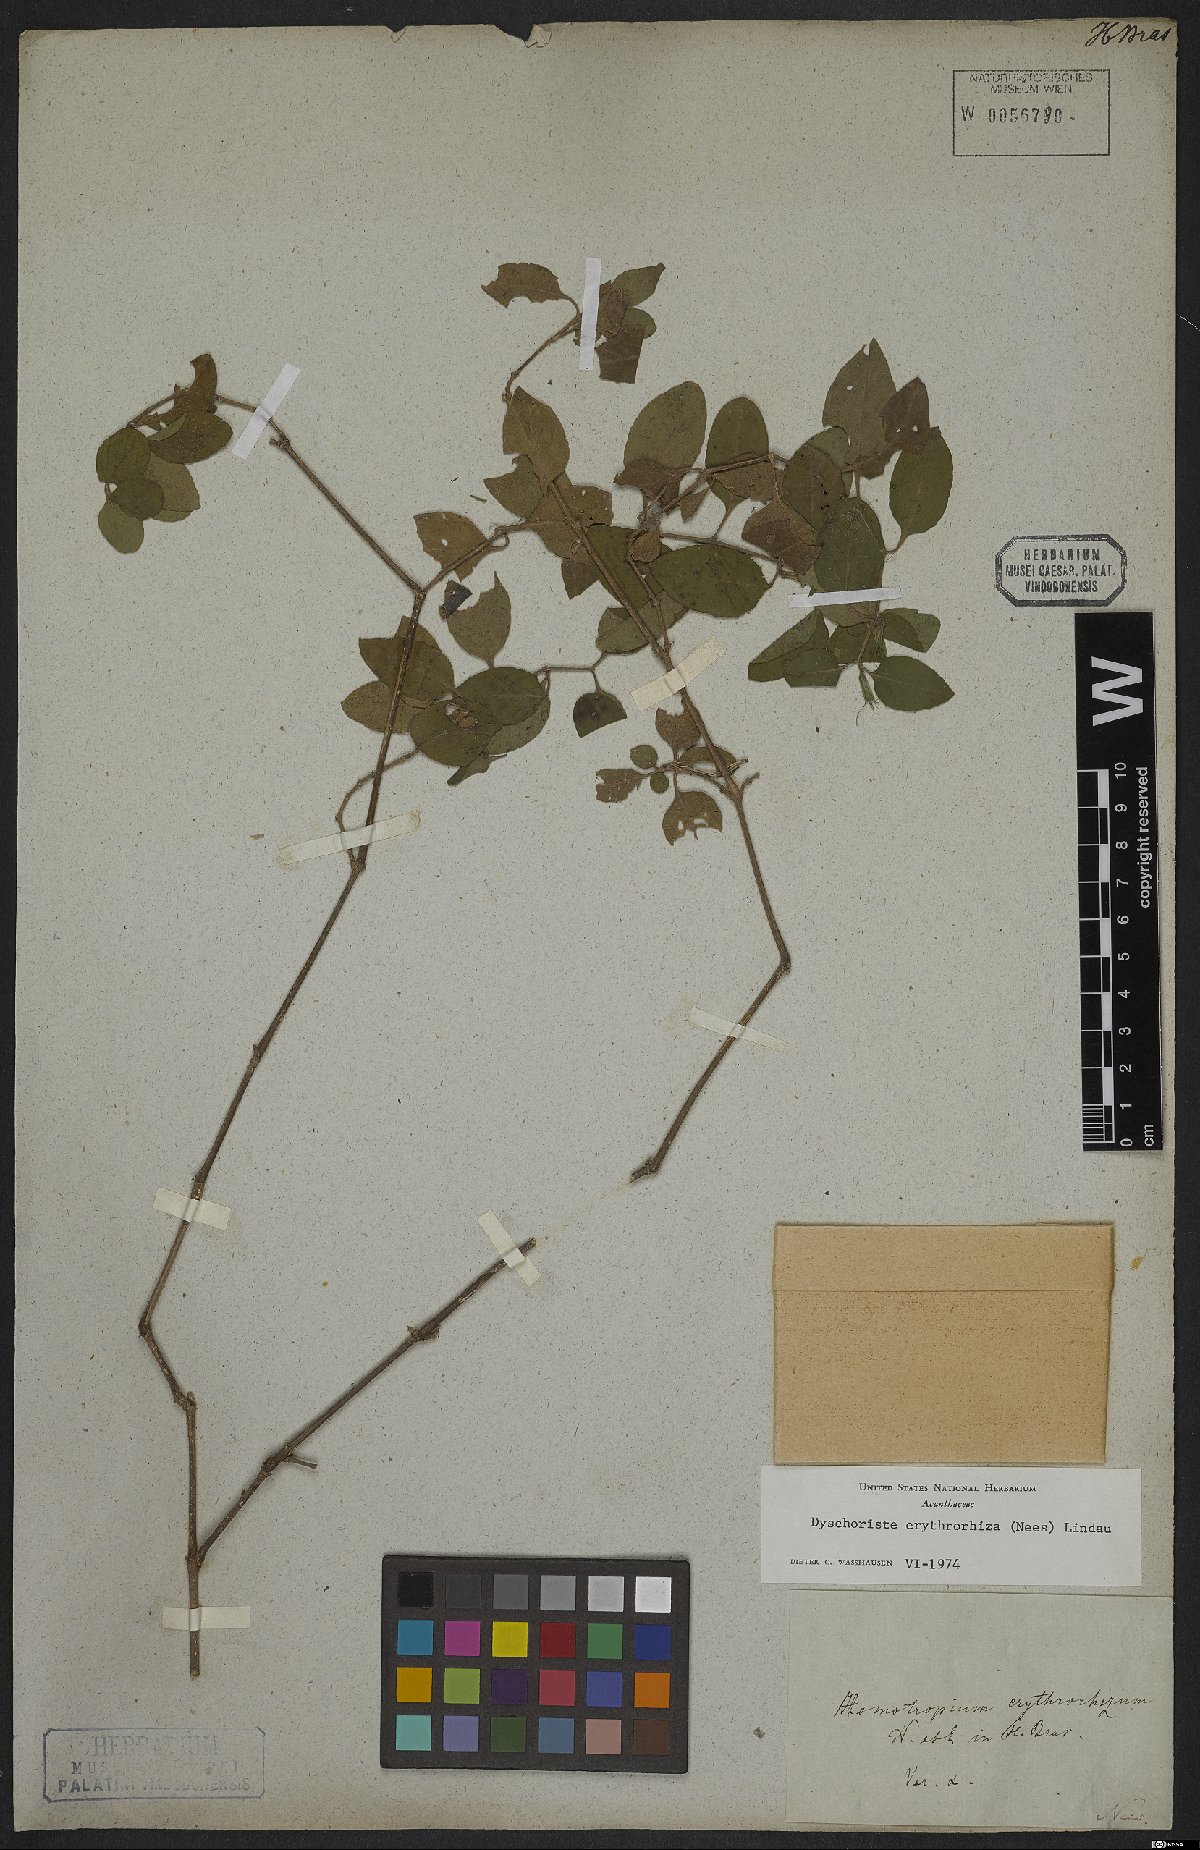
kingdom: Plantae
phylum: Tracheophyta
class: Magnoliopsida
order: Lamiales
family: Acanthaceae
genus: Dyschoriste
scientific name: Dyschoriste erythrorhiza
